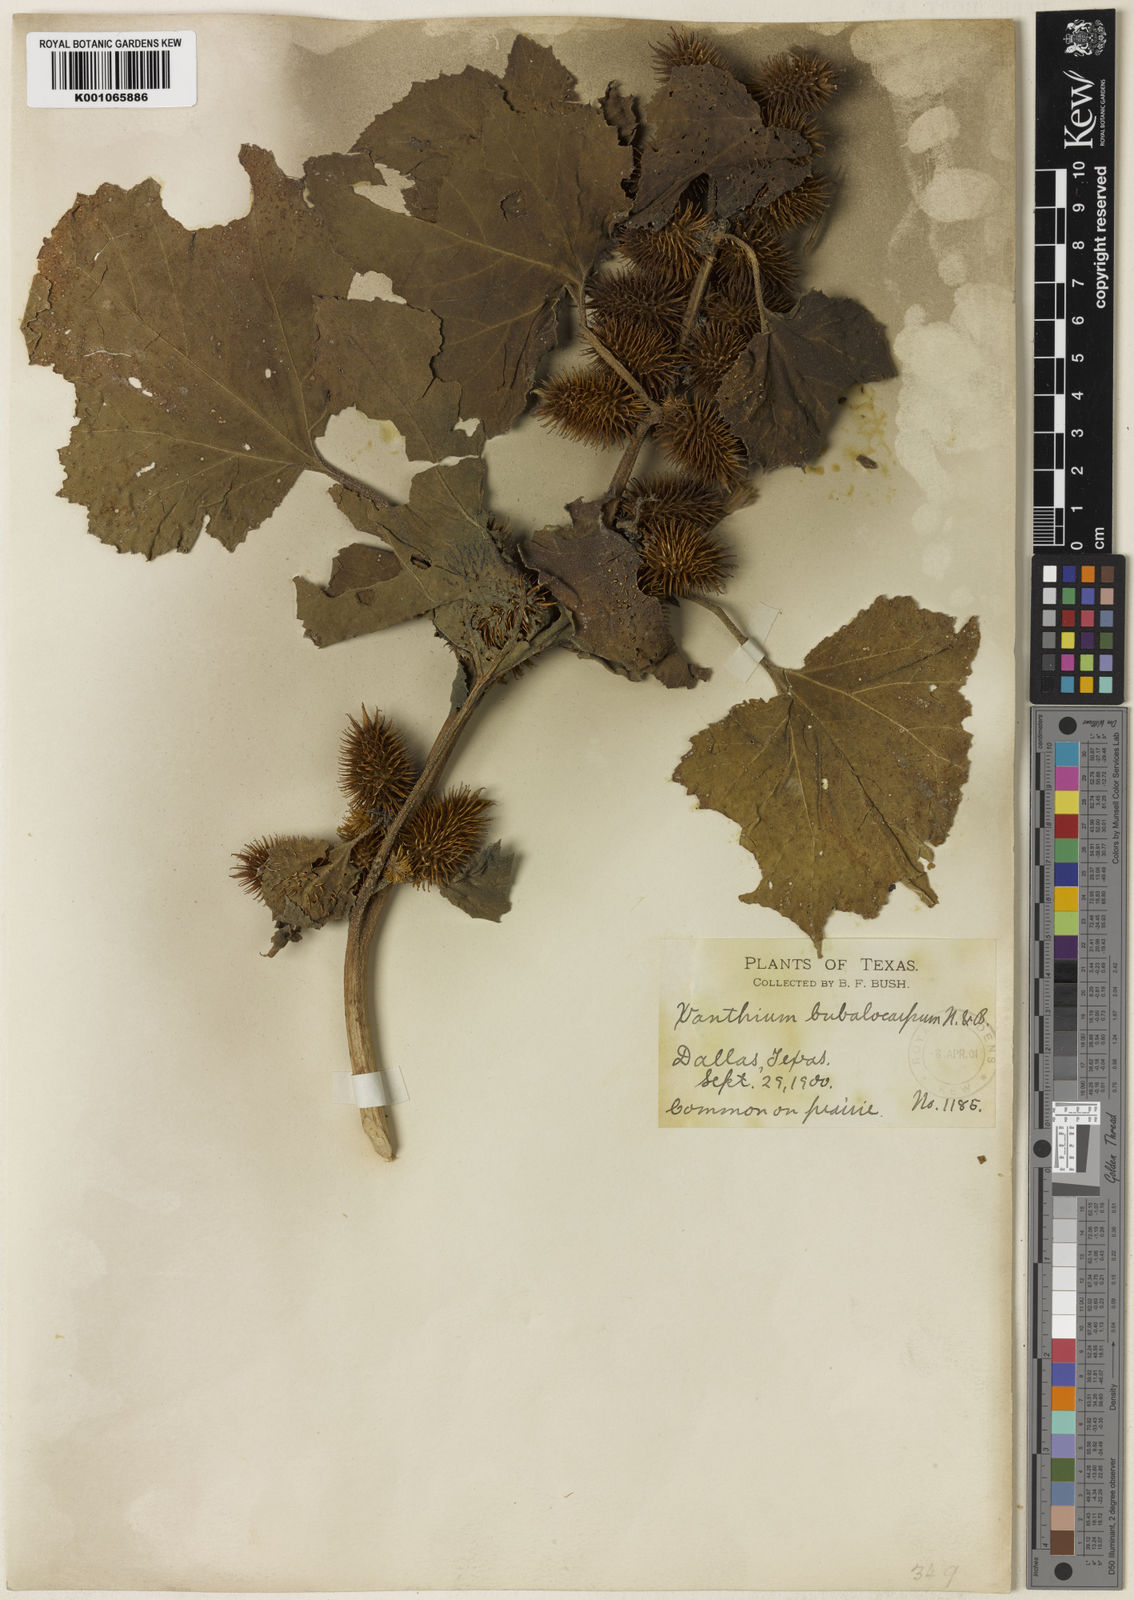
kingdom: Plantae
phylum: Tracheophyta
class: Magnoliopsida
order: Asterales
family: Asteraceae
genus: Xanthium
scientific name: Xanthium orientale
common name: Californian burr
